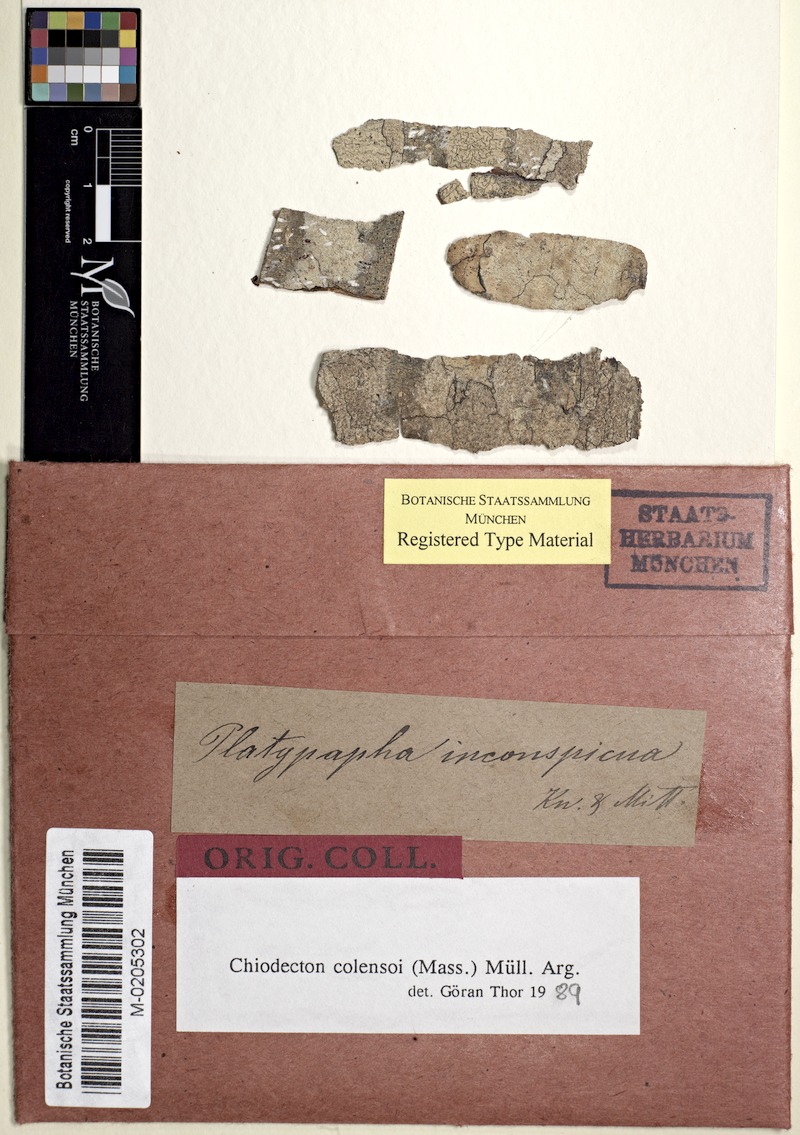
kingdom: Fungi
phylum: Ascomycota
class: Arthoniomycetes
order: Arthoniales
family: Roccellaceae
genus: Chiodecton
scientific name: Chiodecton colensoi
